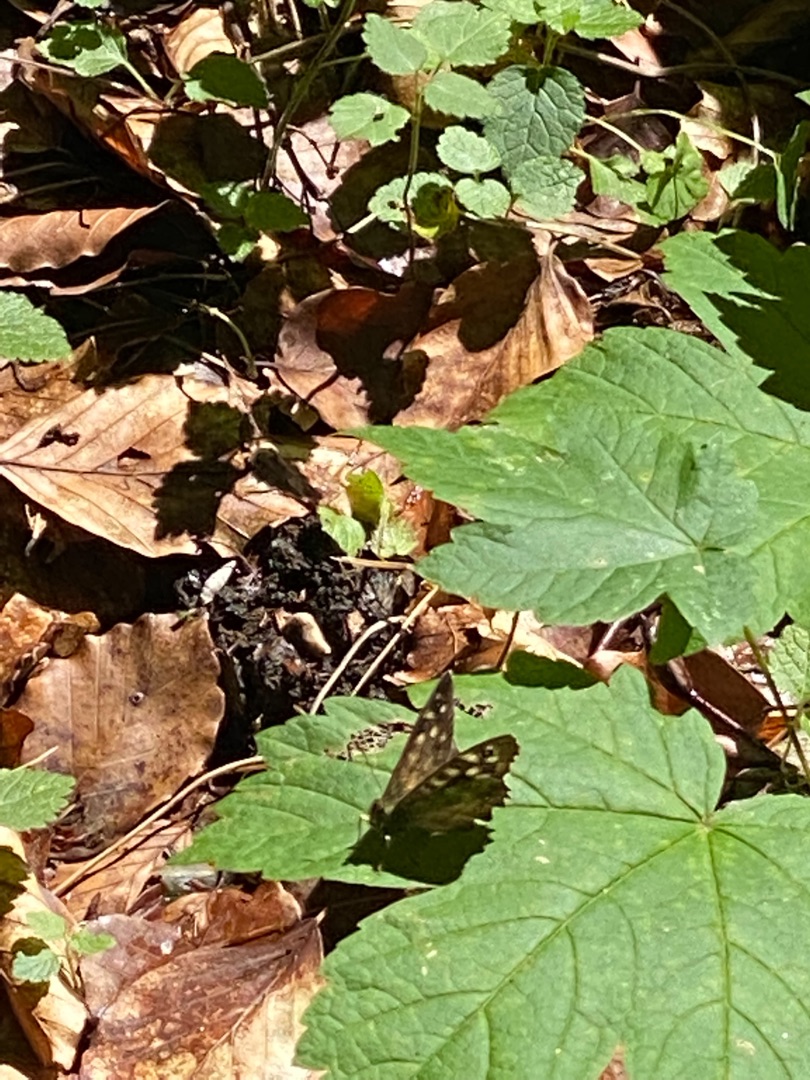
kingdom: Animalia
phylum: Arthropoda
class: Insecta
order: Lepidoptera
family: Nymphalidae
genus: Pararge
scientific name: Pararge aegeria
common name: Skovrandøje
